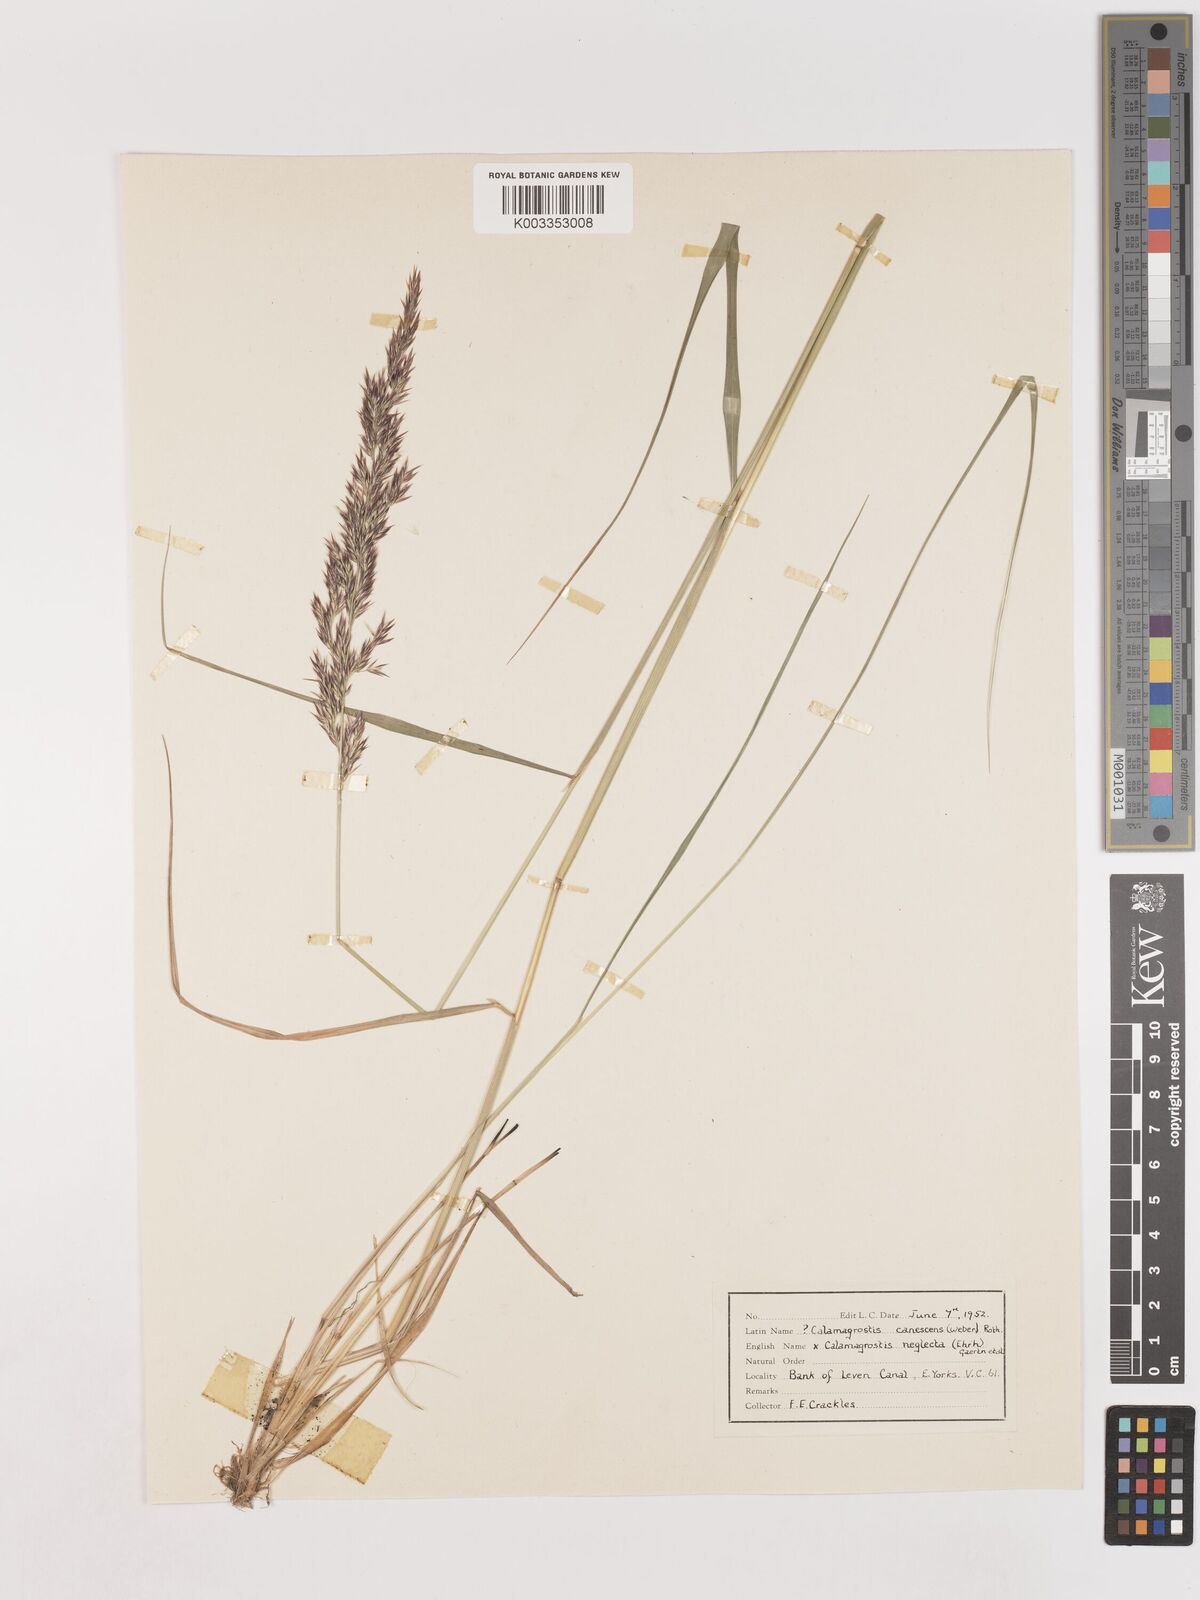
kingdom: Plantae
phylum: Tracheophyta
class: Liliopsida
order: Poales
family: Poaceae
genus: Calamagrostis
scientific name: Calamagrostis canescens
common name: Purple small-reed
